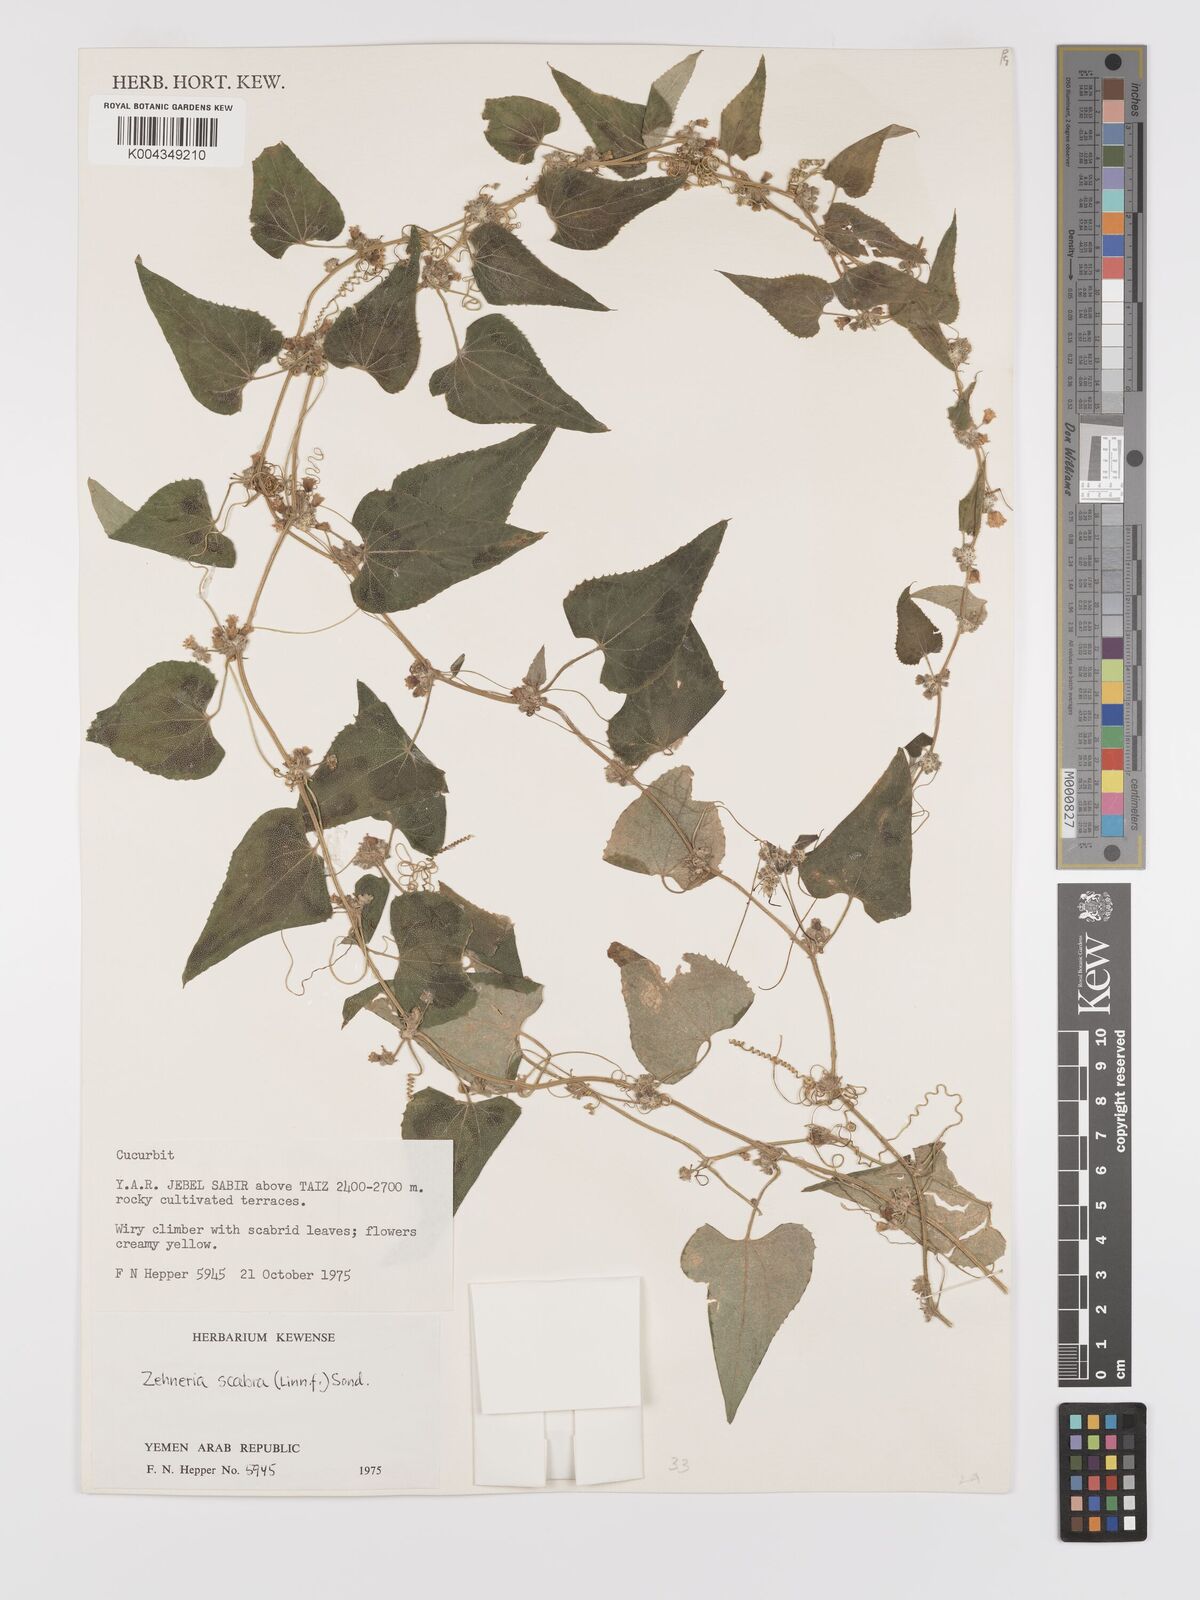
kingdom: Plantae
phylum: Tracheophyta
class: Magnoliopsida
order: Cucurbitales
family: Cucurbitaceae
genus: Zehneria
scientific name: Zehneria scabra
